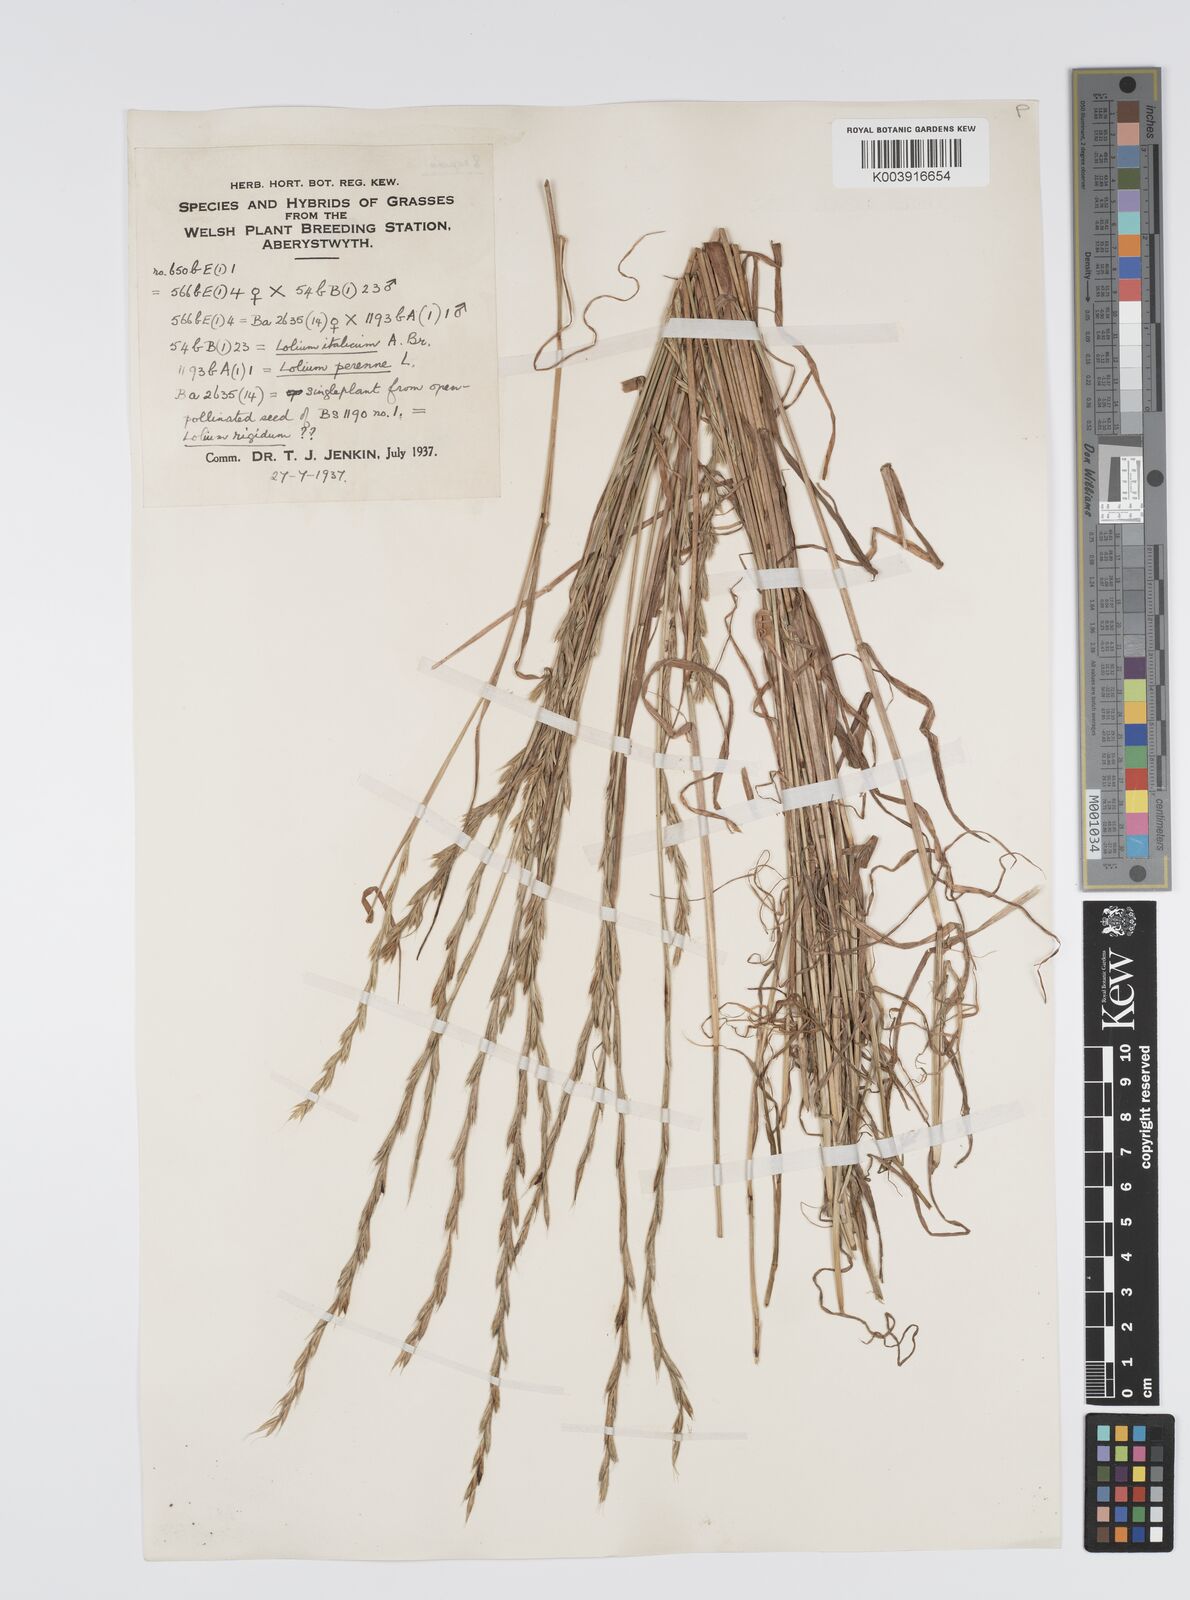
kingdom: Plantae
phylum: Tracheophyta
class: Liliopsida
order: Poales
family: Poaceae
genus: Lolium
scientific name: Lolium perenne
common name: Perennial ryegrass
